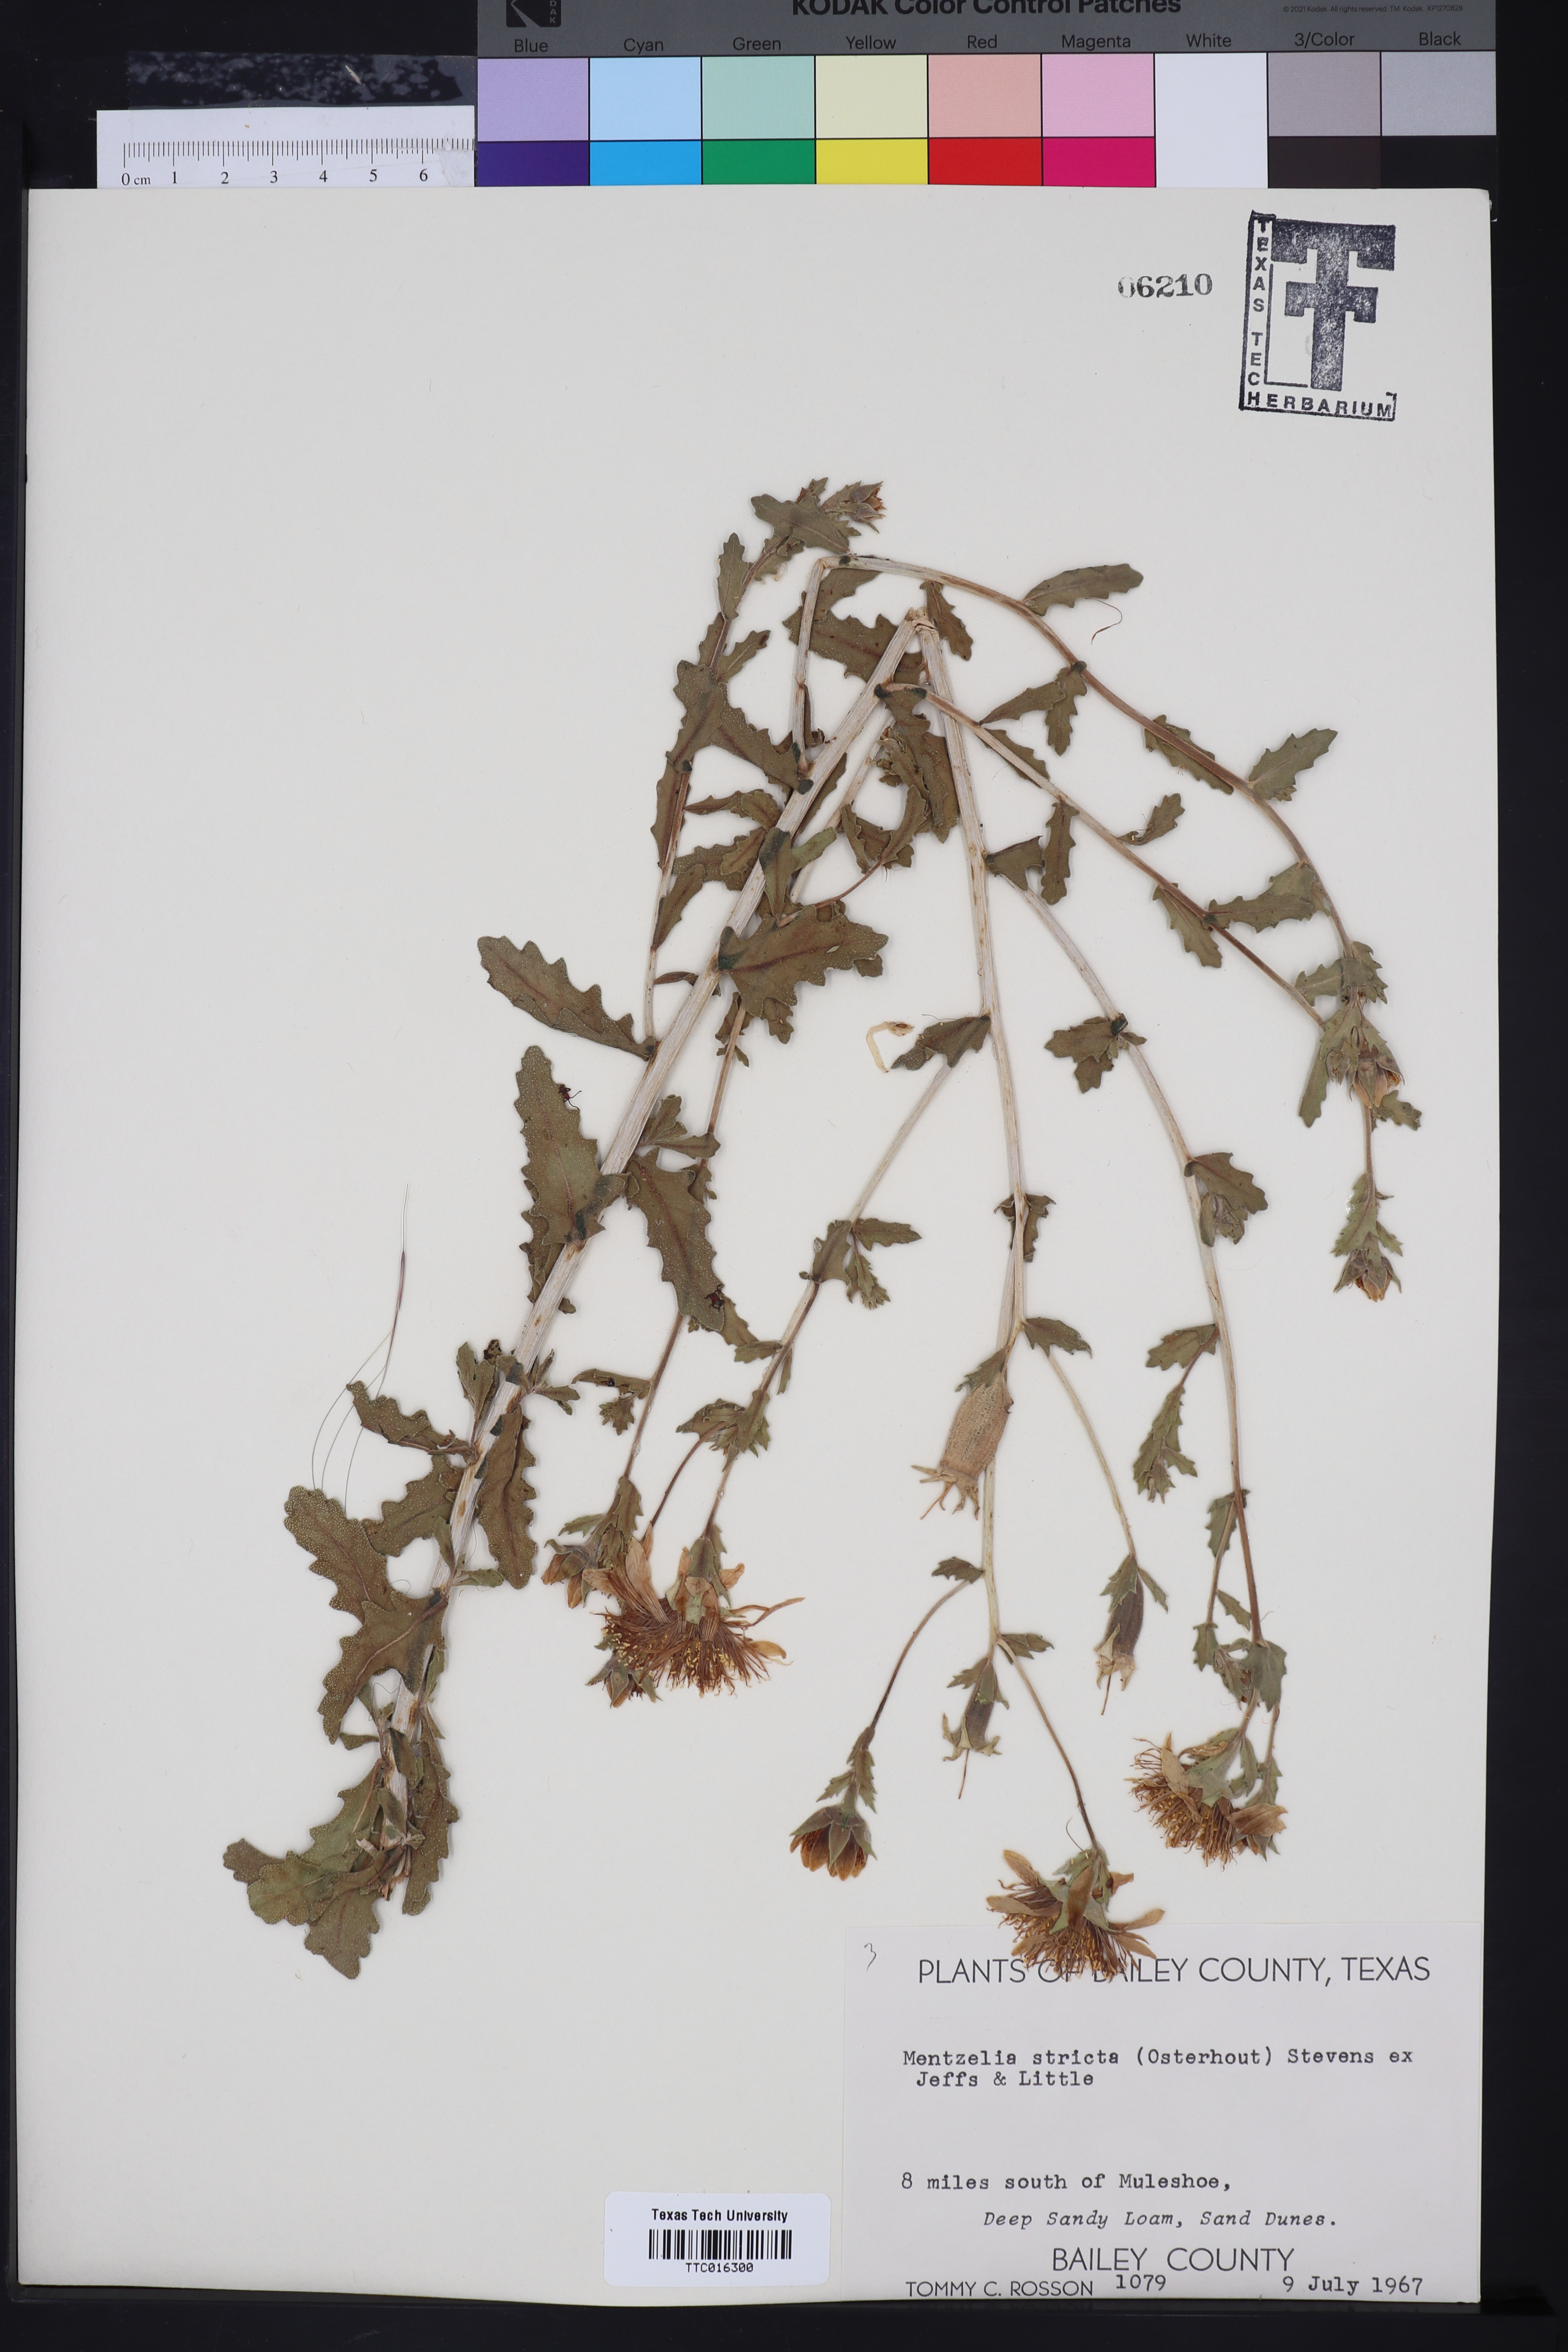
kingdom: Plantae
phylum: Tracheophyta
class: Magnoliopsida
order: Cornales
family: Loasaceae
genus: Mentzelia
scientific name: Mentzelia nuda
